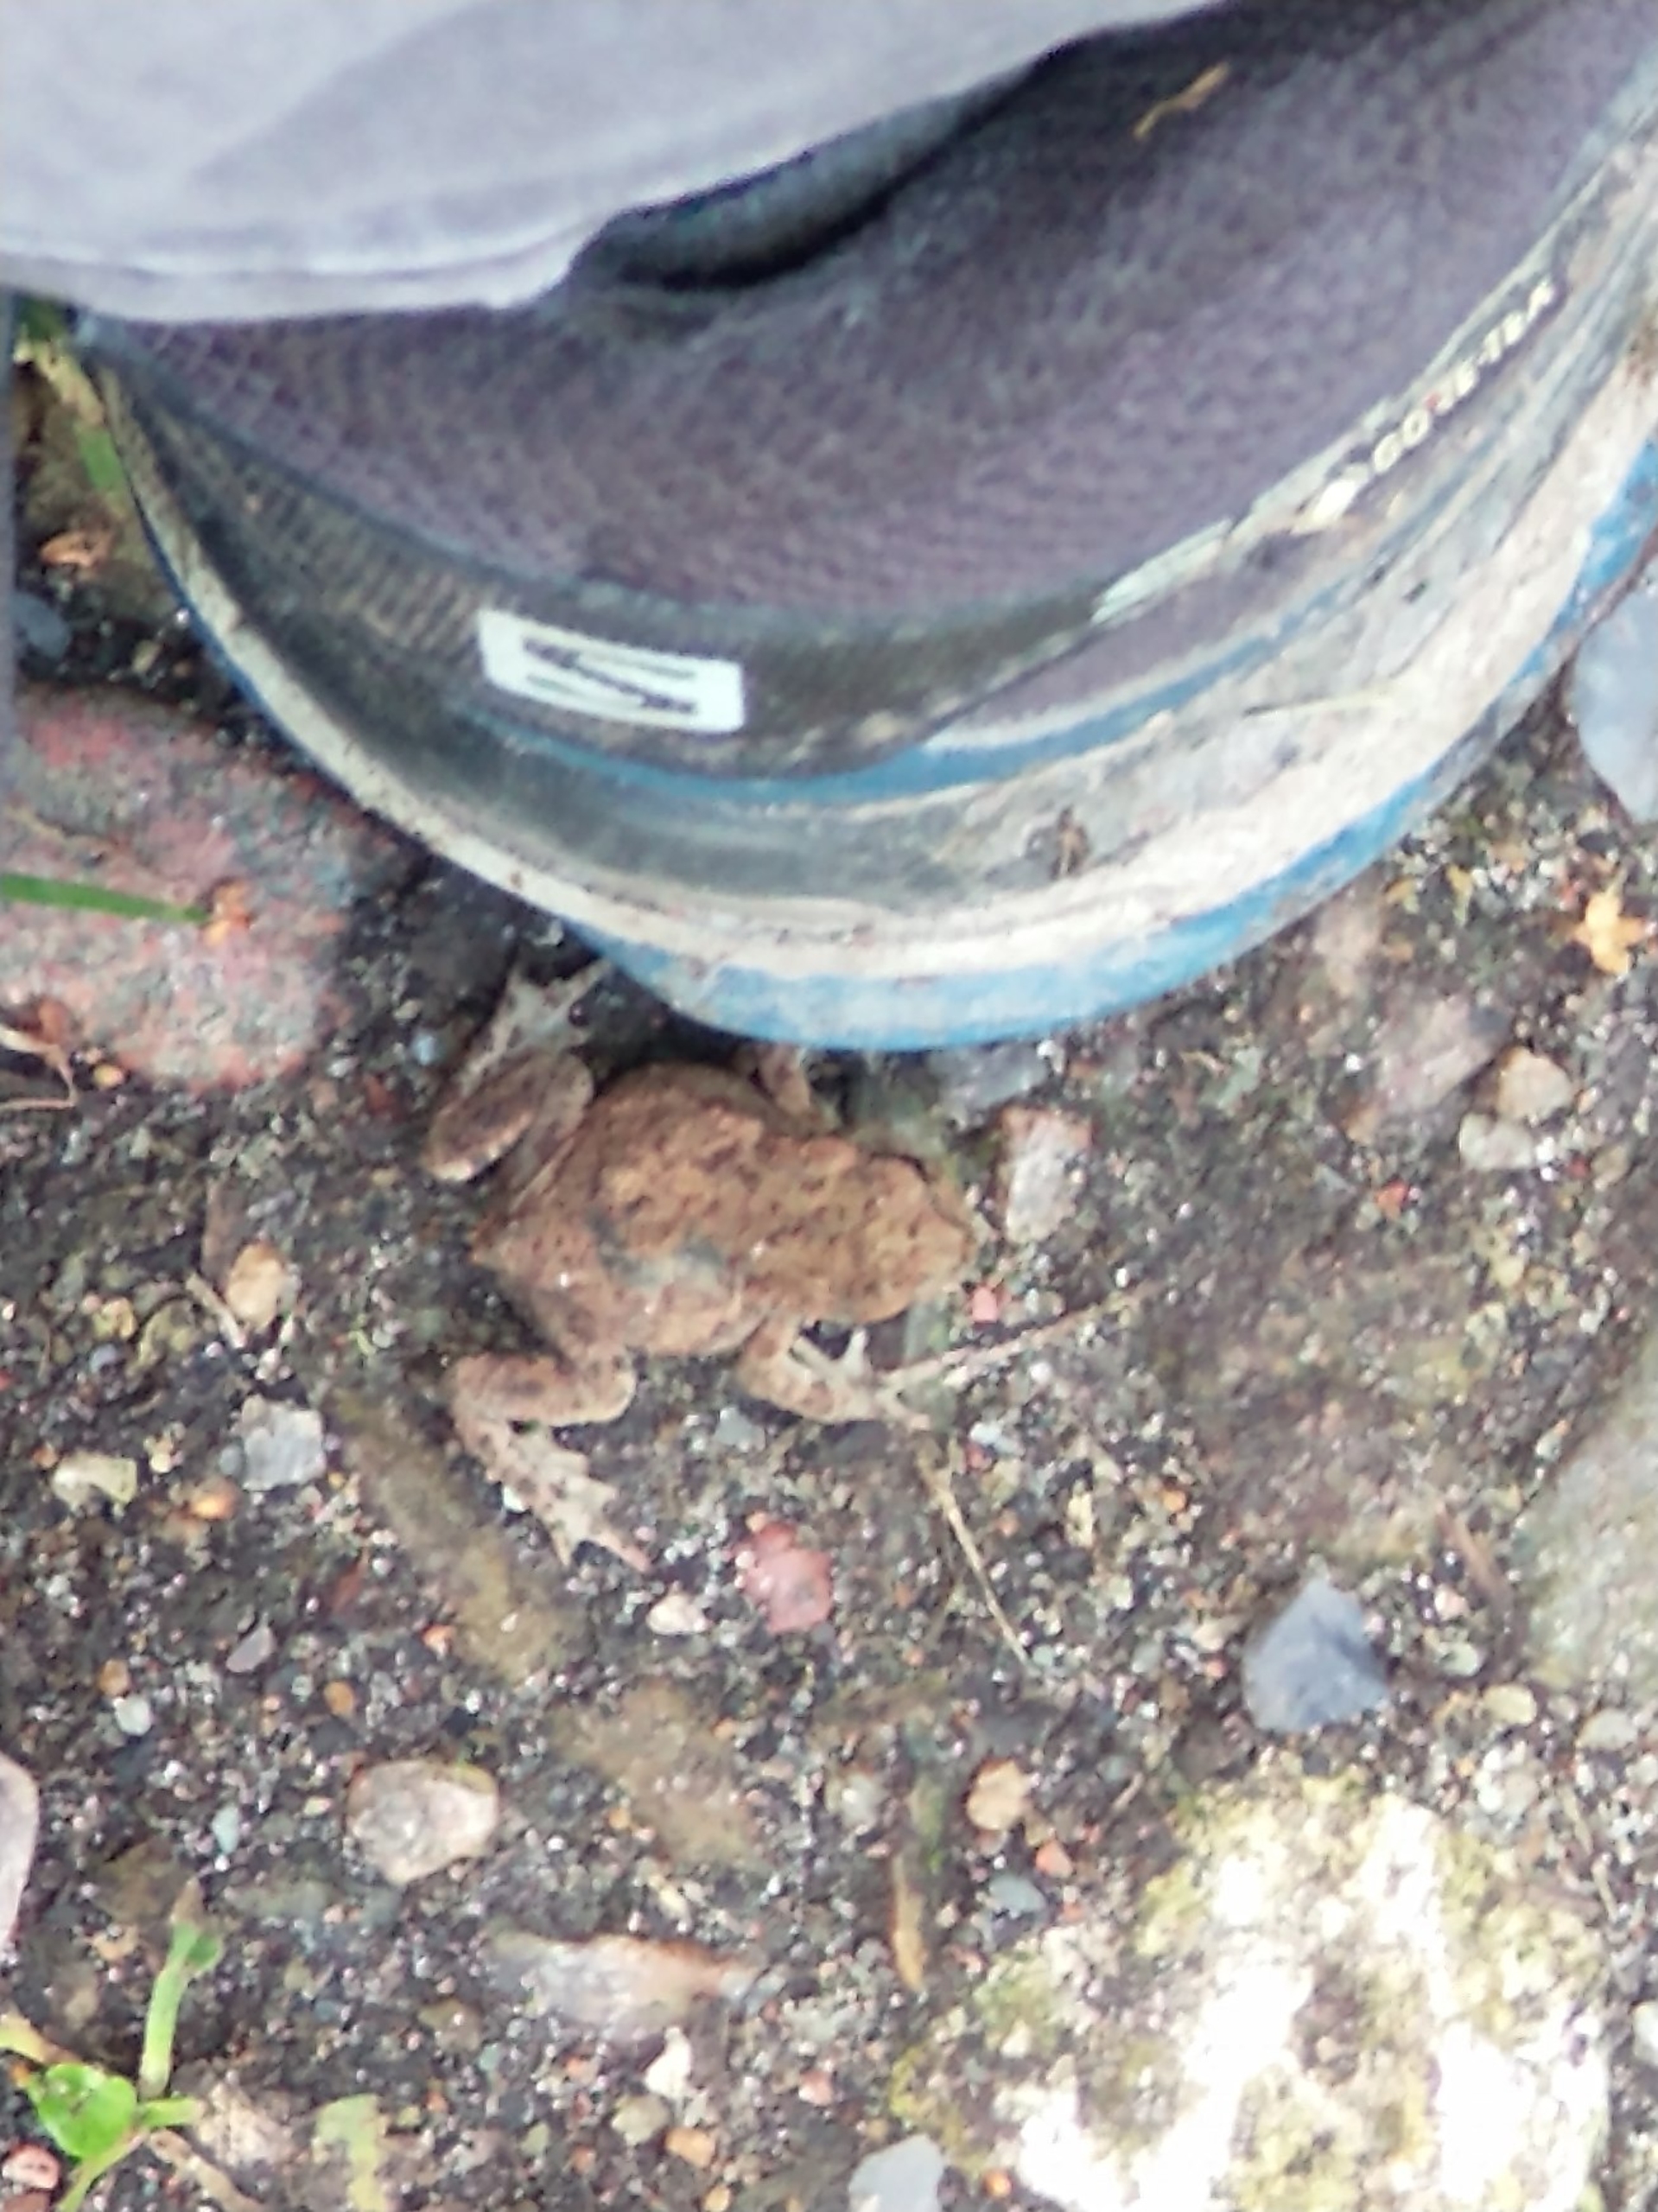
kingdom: Animalia
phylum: Chordata
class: Amphibia
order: Anura
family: Bufonidae
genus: Bufo
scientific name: Bufo bufo
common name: Skrubtudse
